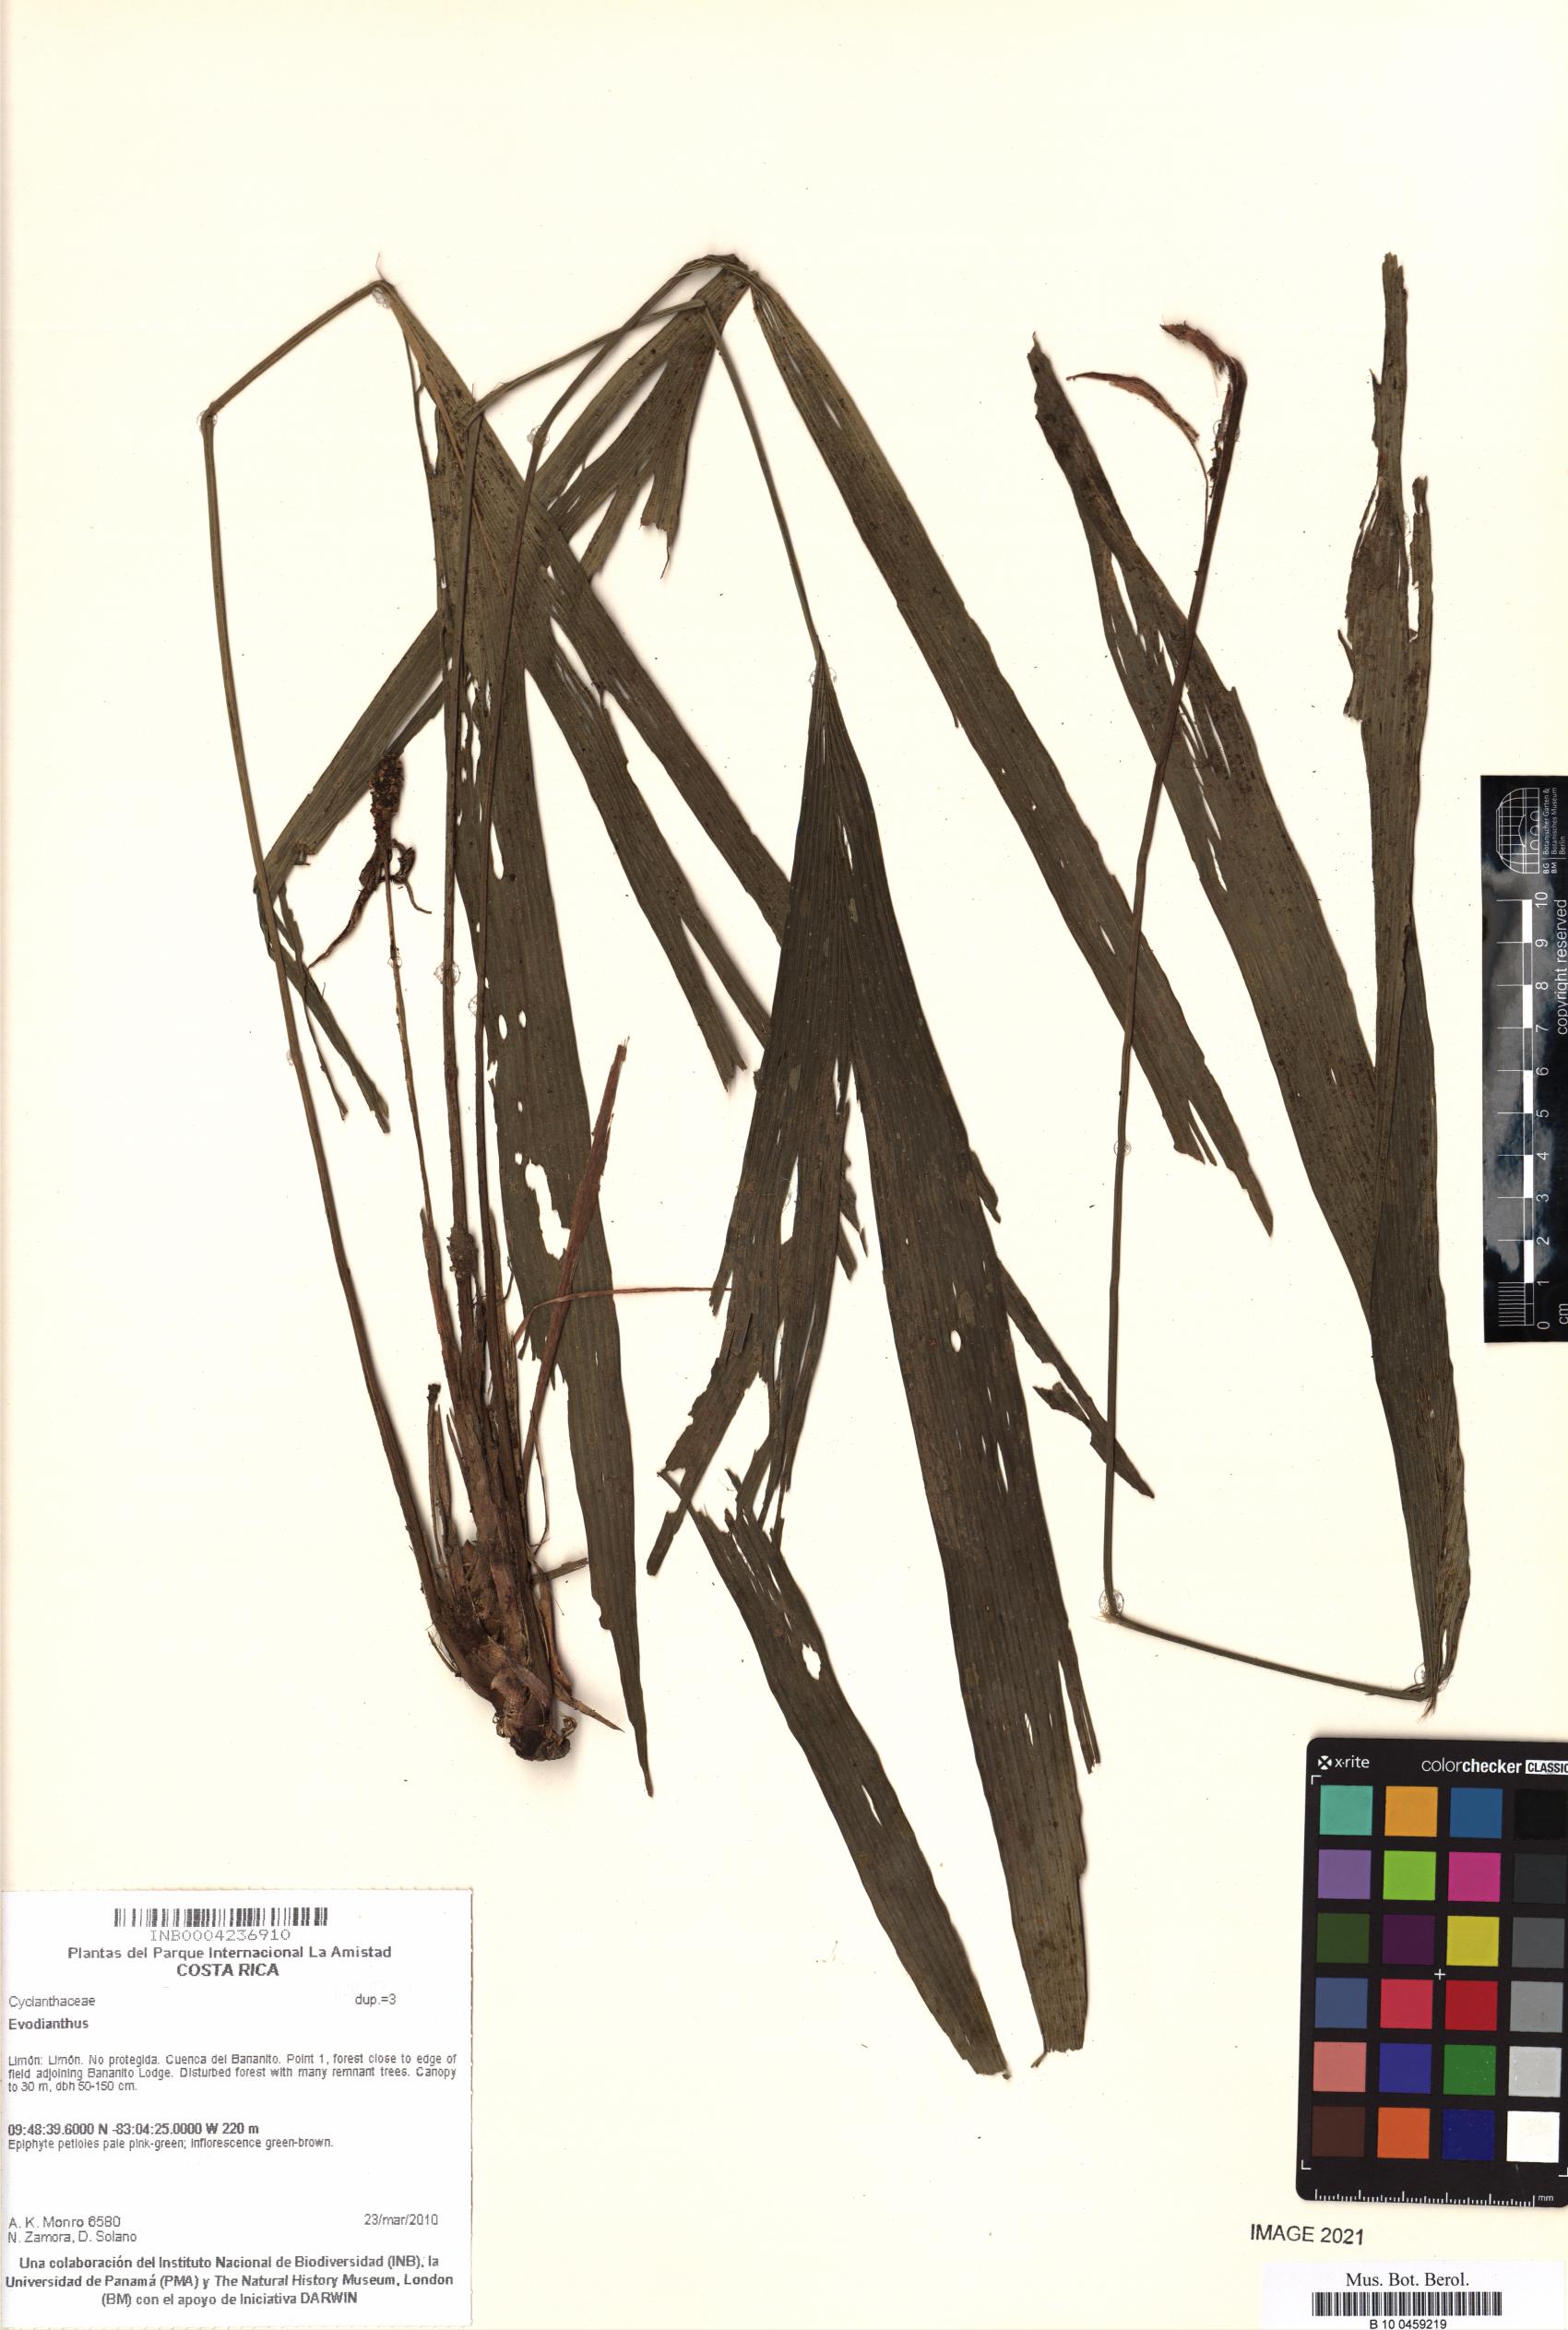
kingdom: Plantae
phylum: Tracheophyta
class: Liliopsida
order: Pandanales
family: Cyclanthaceae
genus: Evodianthus
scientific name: Evodianthus
